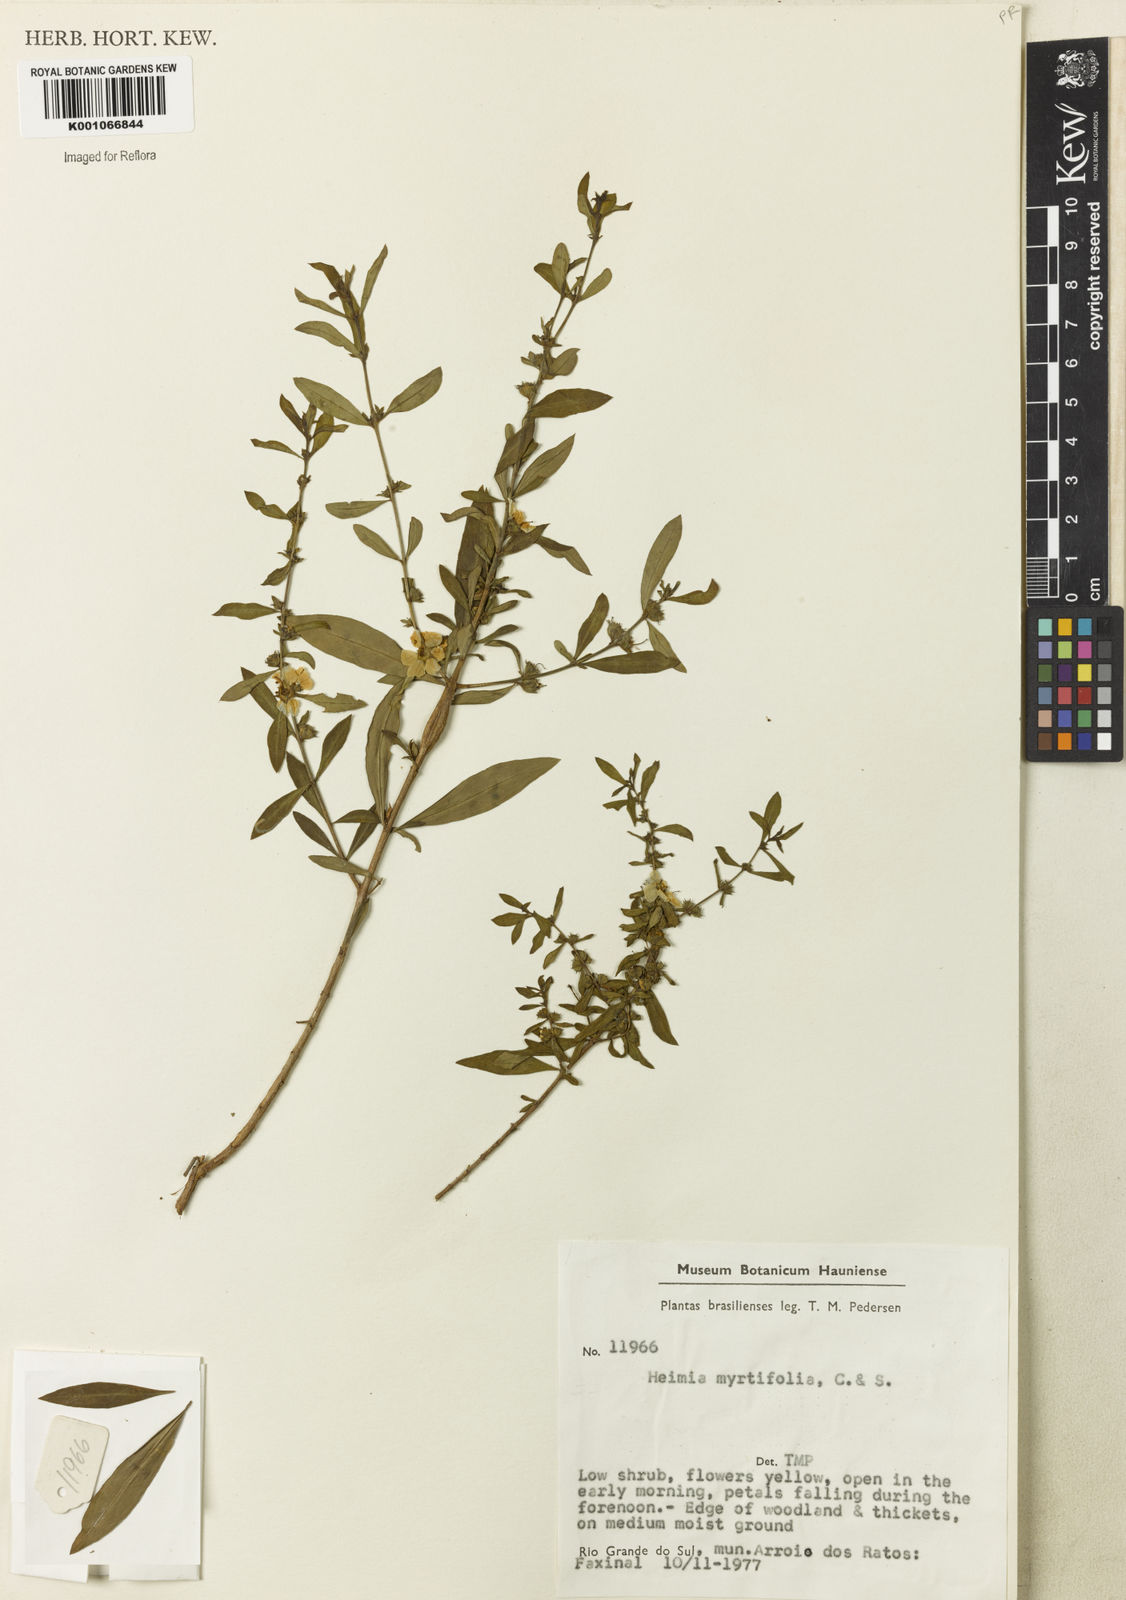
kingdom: Plantae
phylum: Tracheophyta
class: Magnoliopsida
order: Myrtales
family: Lythraceae
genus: Heimia
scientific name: Heimia apetala
